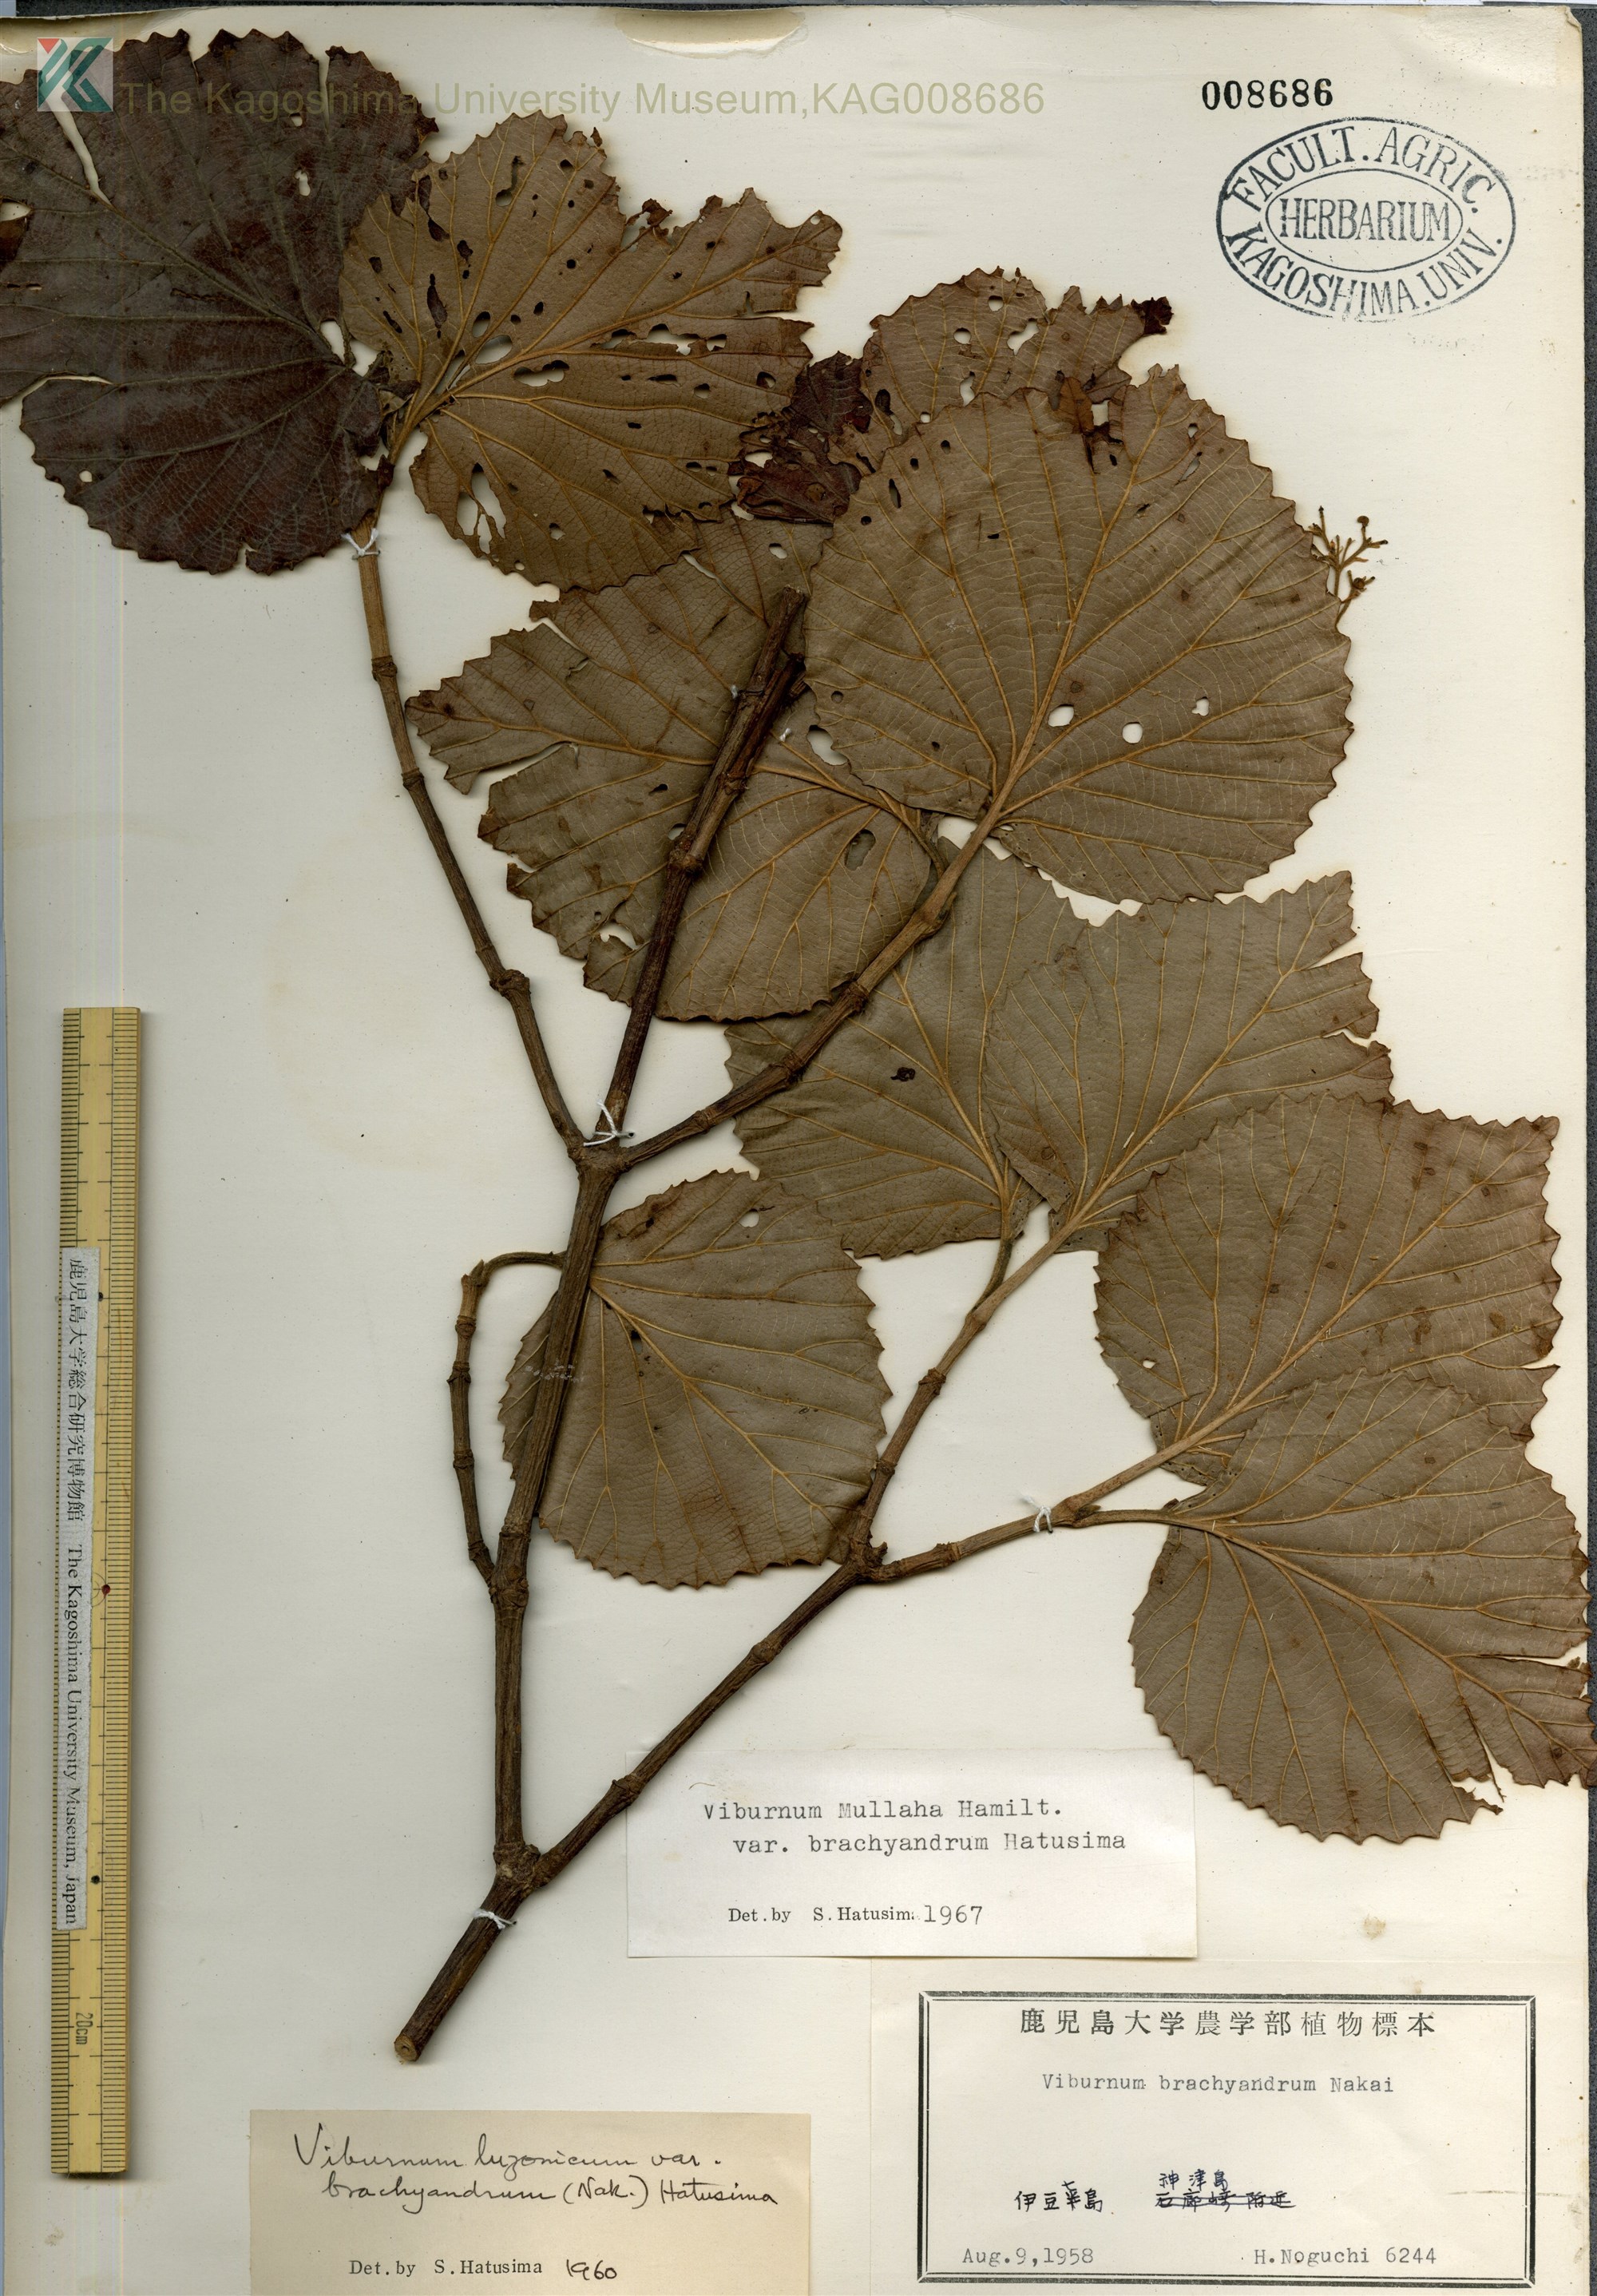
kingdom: Plantae
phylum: Tracheophyta
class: Magnoliopsida
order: Dipsacales
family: Viburnaceae
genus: Viburnum
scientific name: Viburnum mullaha
